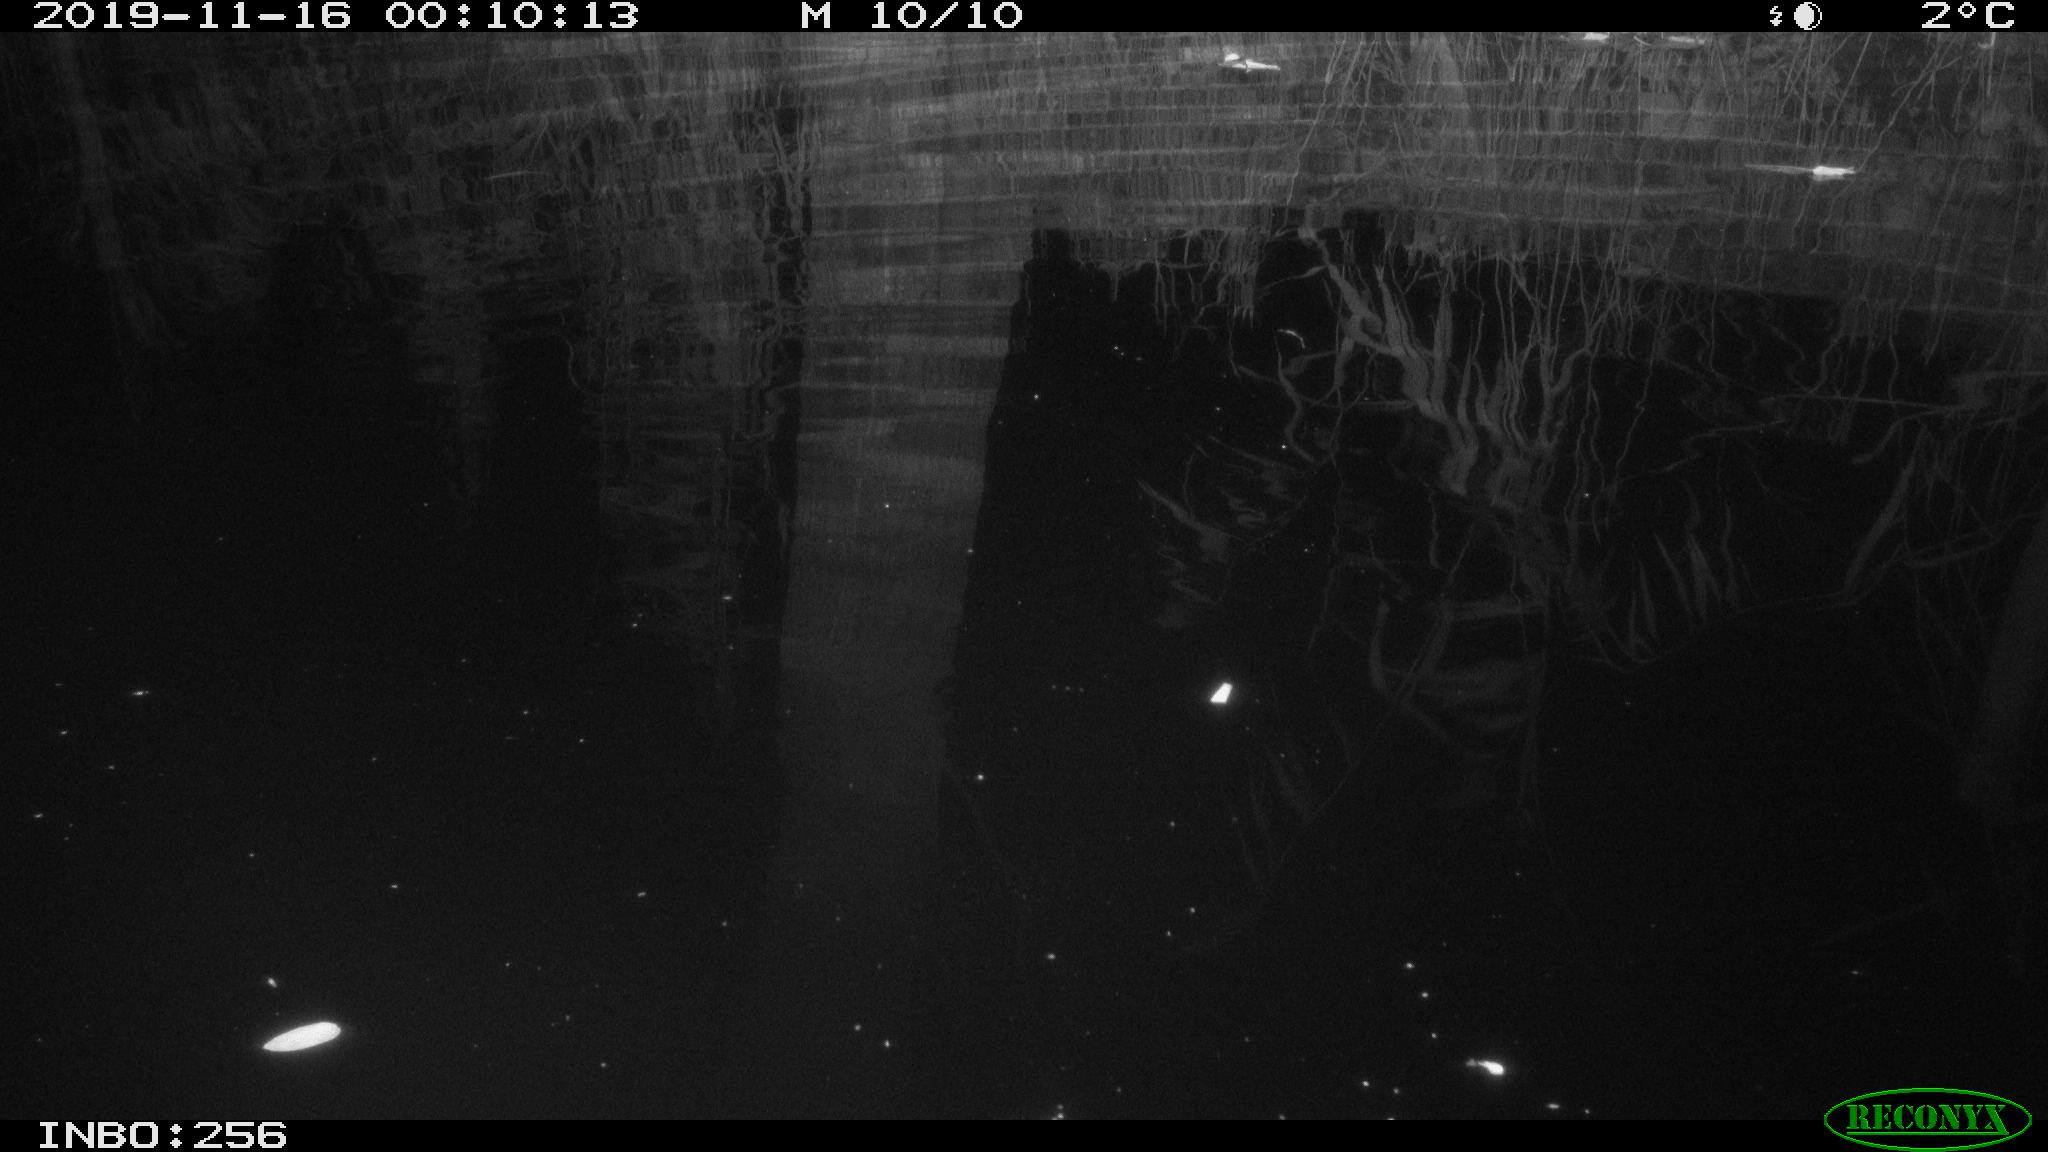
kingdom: Animalia
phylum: Chordata
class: Mammalia
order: Rodentia
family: Muridae
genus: Rattus
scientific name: Rattus norvegicus
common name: Brown rat
